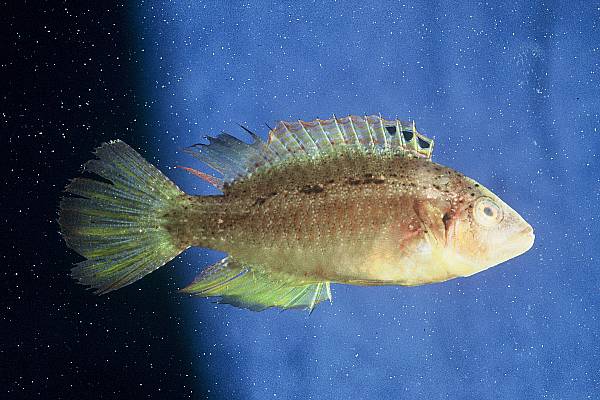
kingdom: Animalia
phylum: Chordata
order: Perciformes
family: Labridae
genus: Pteragogus
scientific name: Pteragogus trispilus
